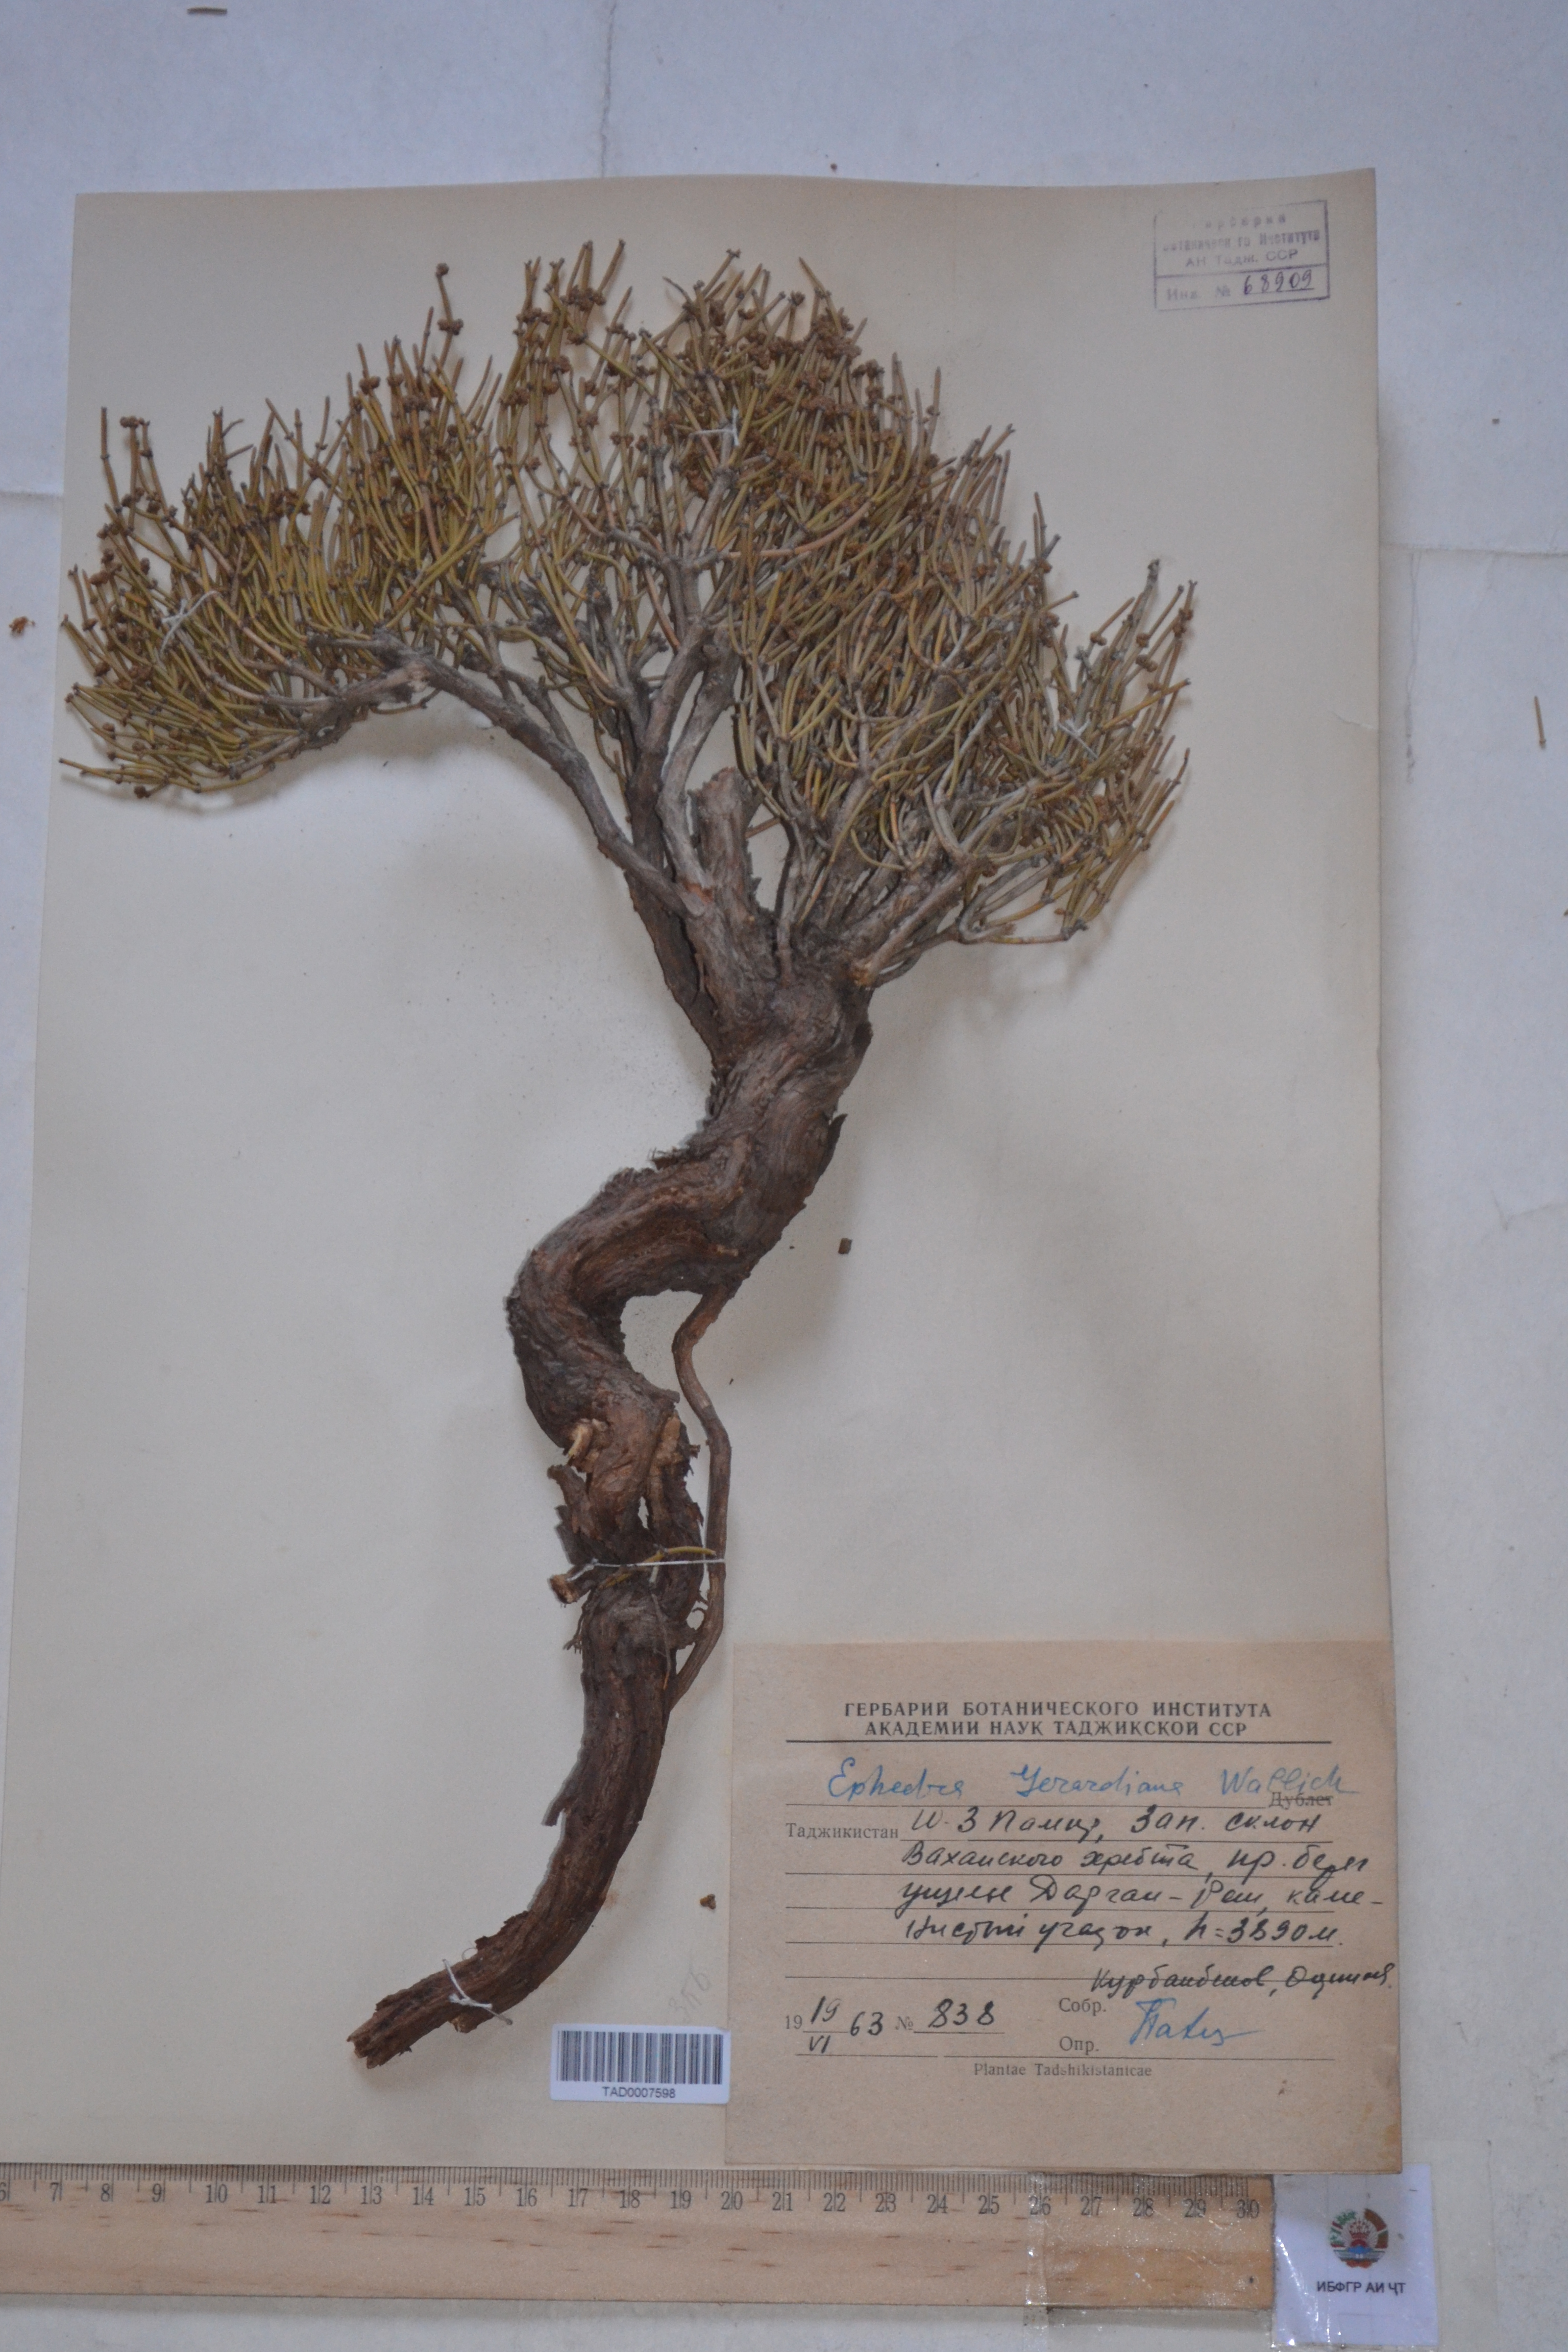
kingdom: Plantae
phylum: Tracheophyta
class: Gnetopsida
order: Ephedrales
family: Ephedraceae
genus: Ephedra
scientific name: Ephedra gerardiana
